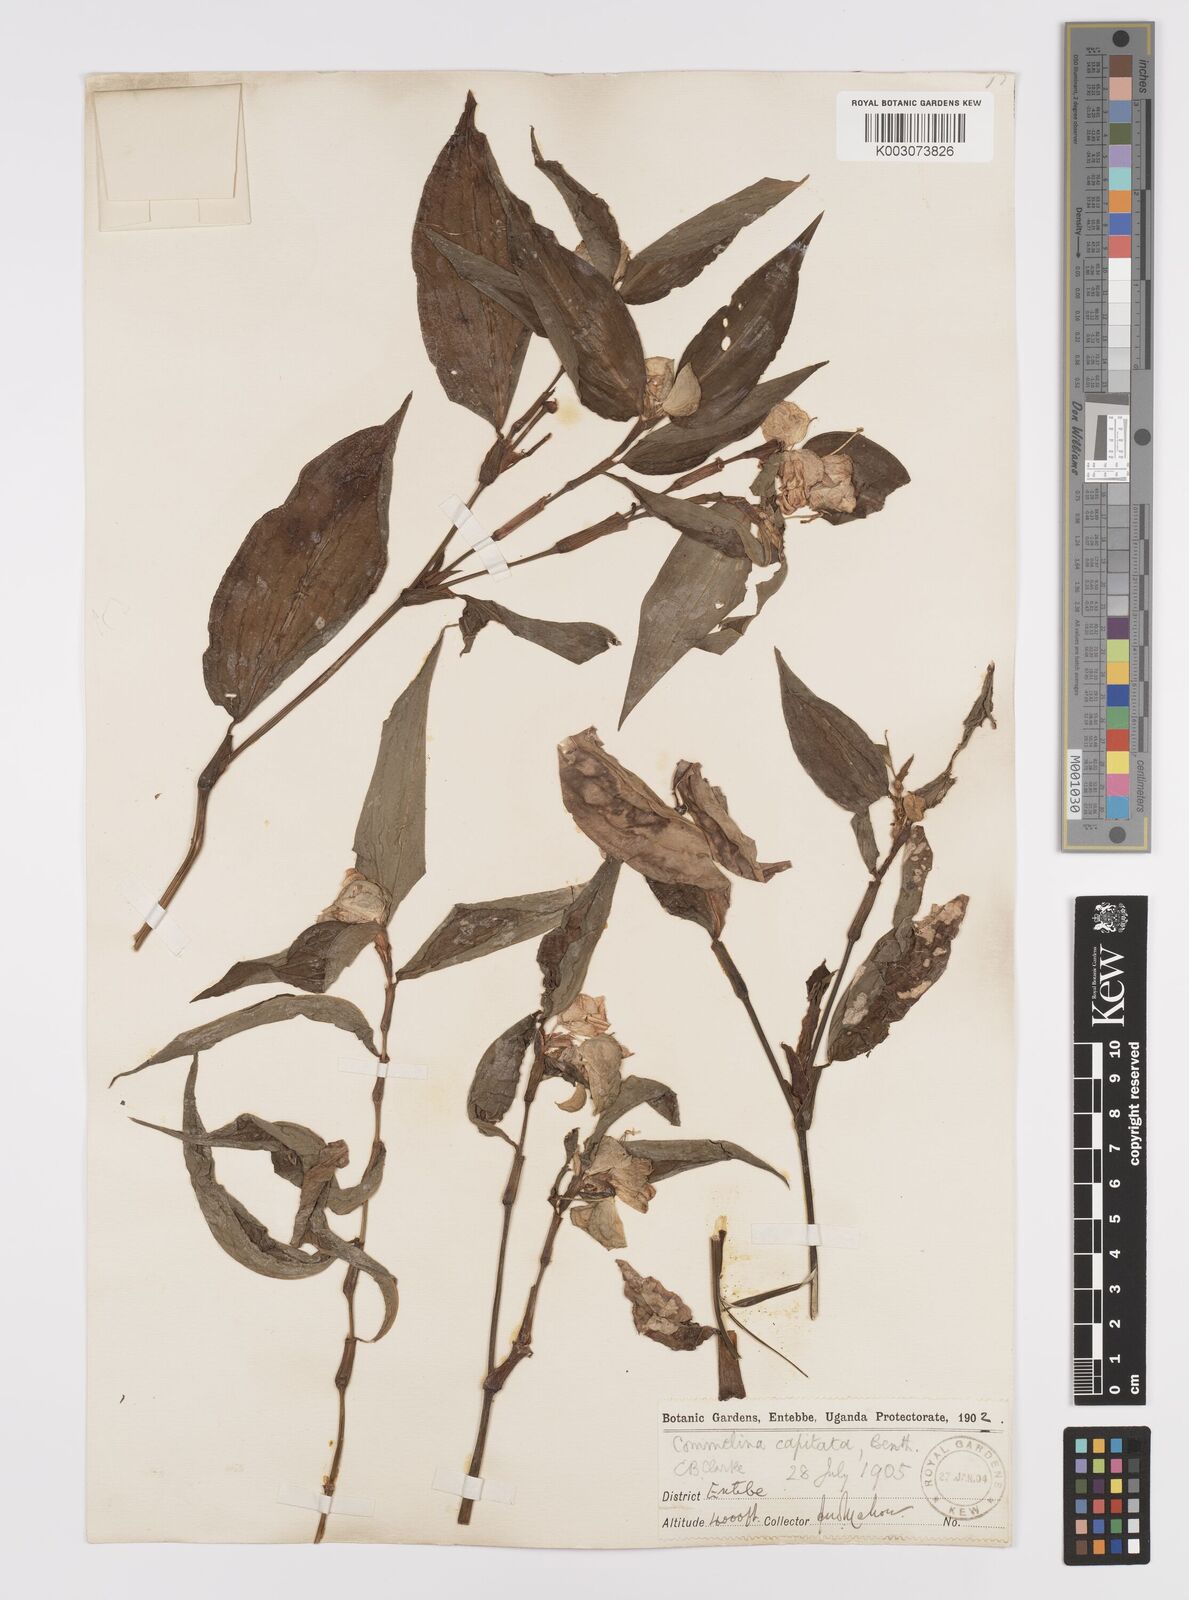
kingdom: Plantae
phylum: Tracheophyta
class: Liliopsida
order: Commelinales
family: Commelinaceae
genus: Commelina
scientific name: Commelina capitata
